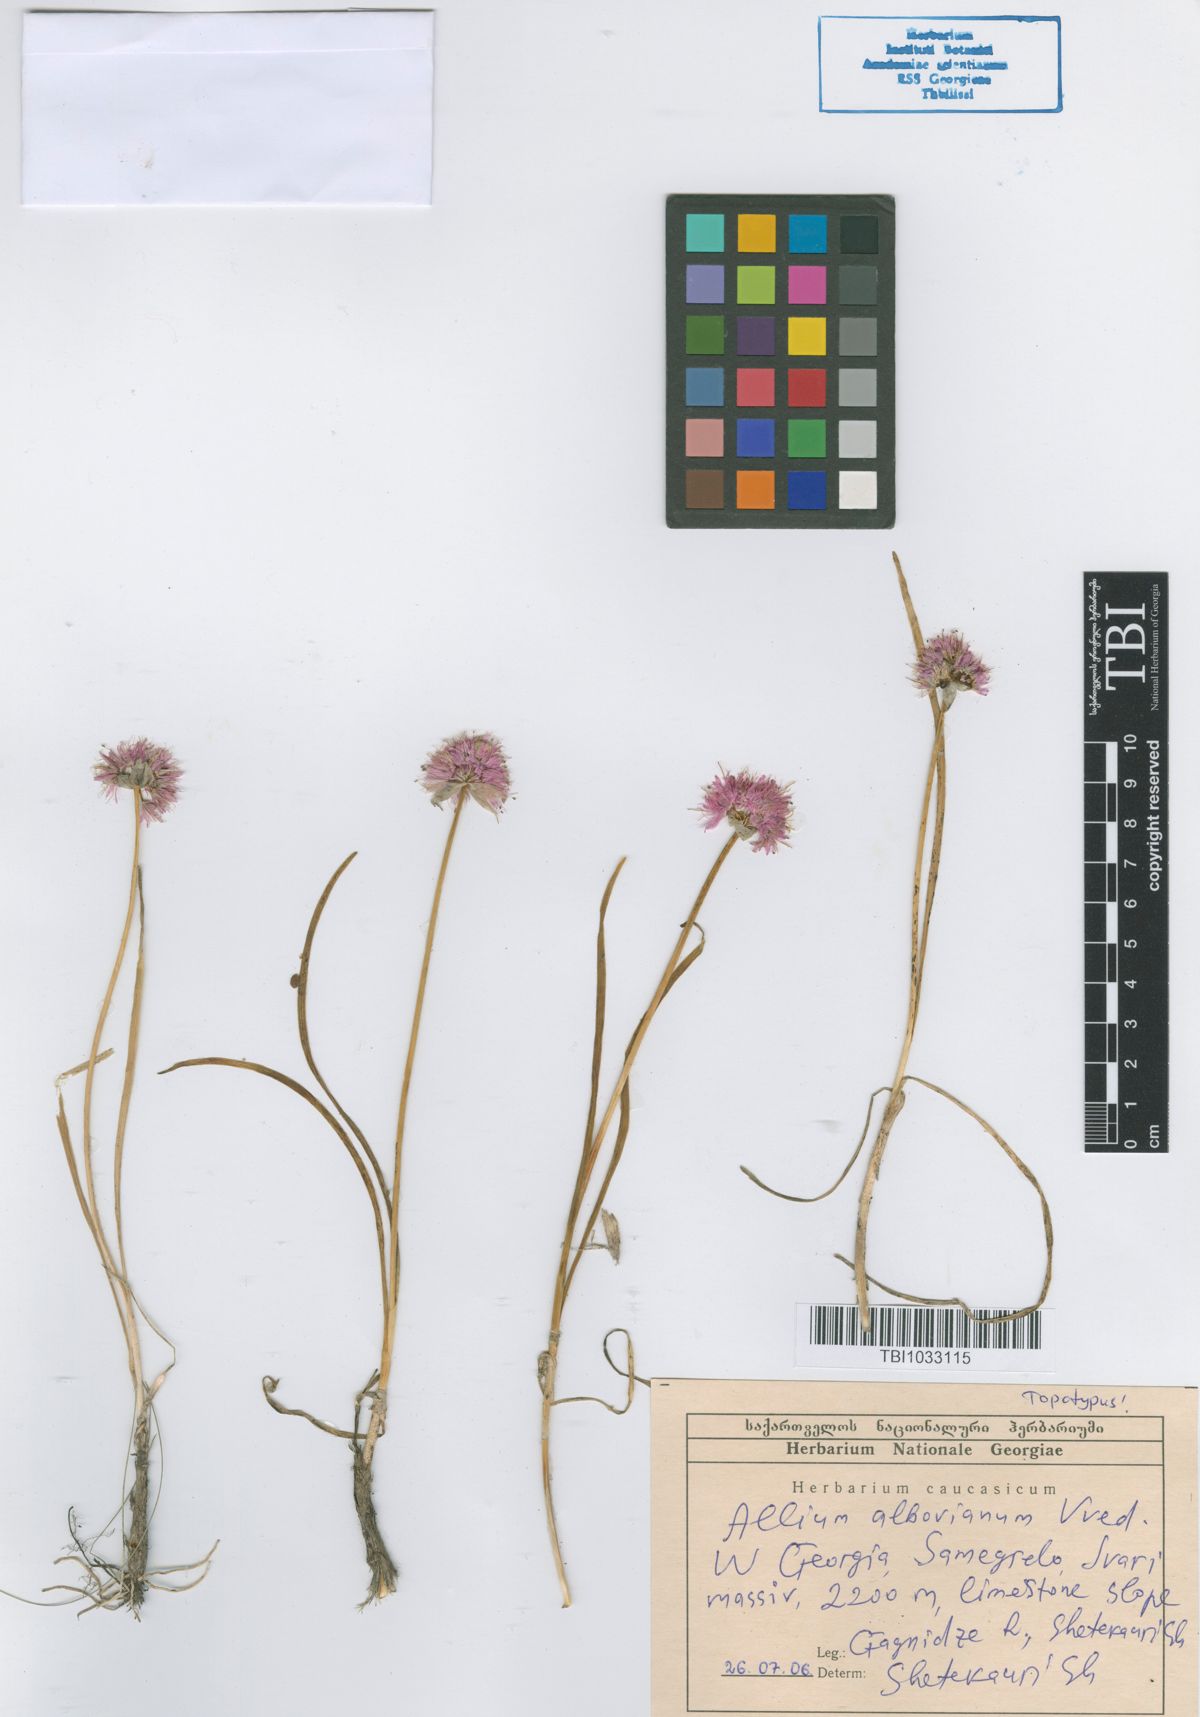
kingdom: Plantae
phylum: Tracheophyta
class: Liliopsida
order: Asparagales
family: Amaryllidaceae
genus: Allium
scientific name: Allium albovianum
